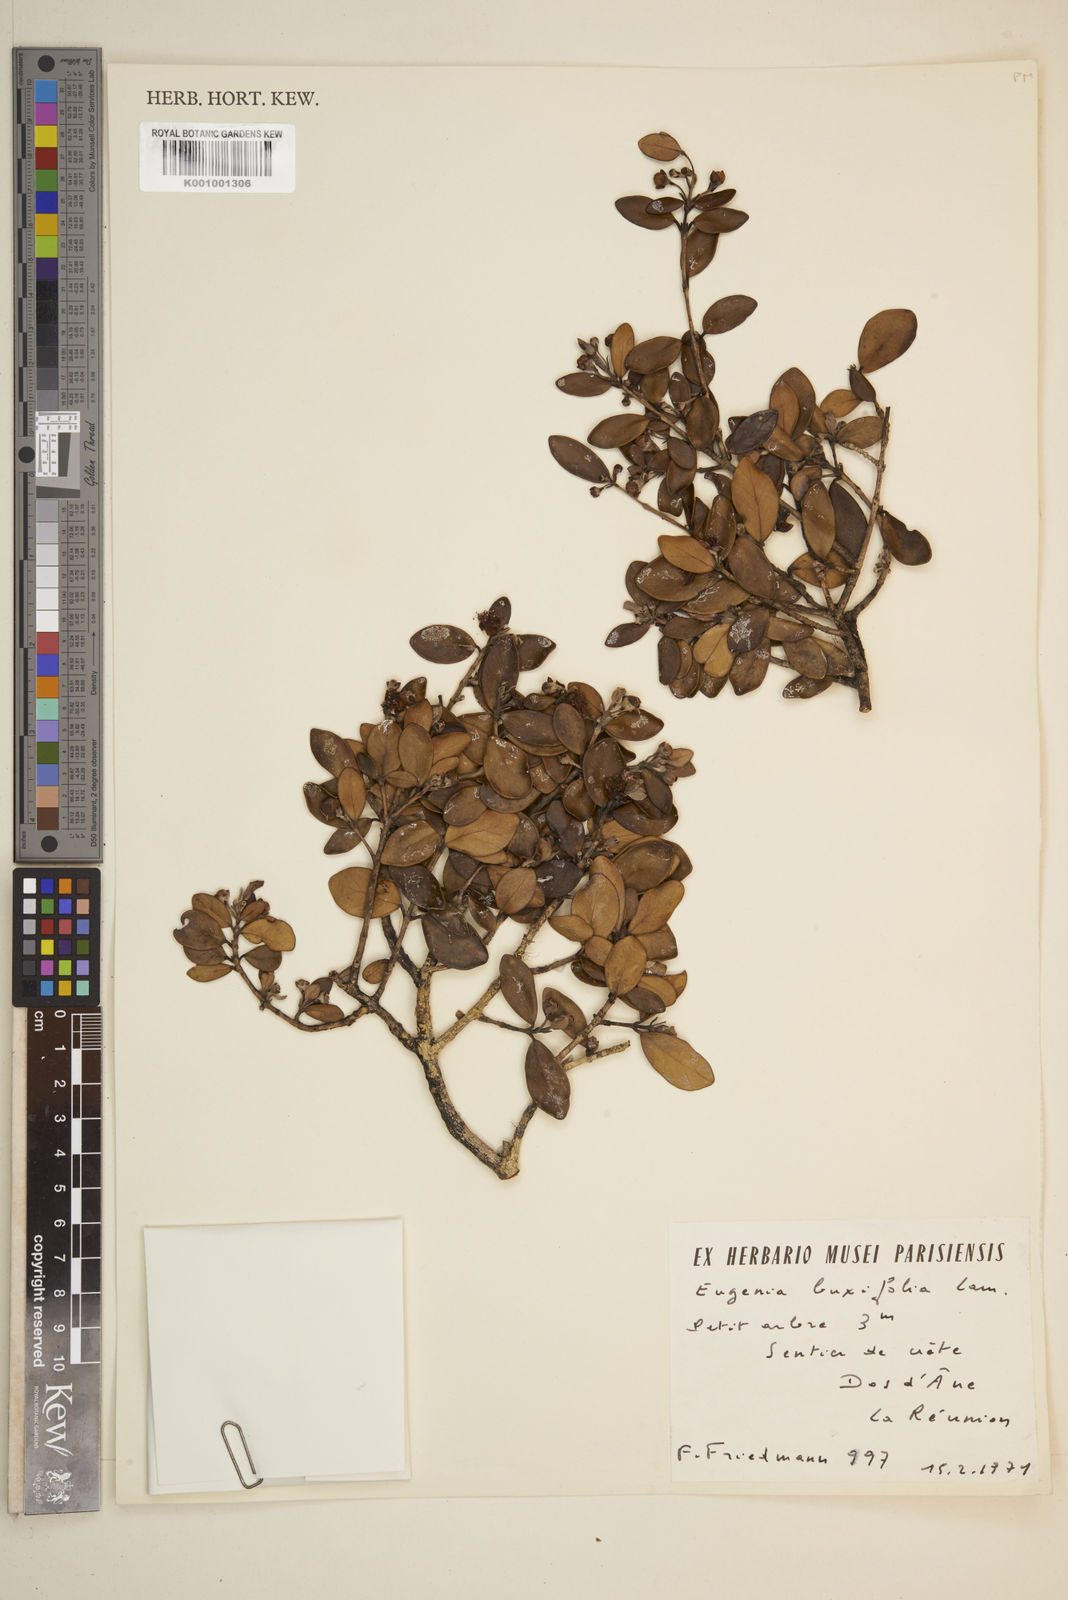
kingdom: Plantae
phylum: Tracheophyta
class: Magnoliopsida
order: Myrtales
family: Myrtaceae
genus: Eugenia
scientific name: Eugenia buxifolia
